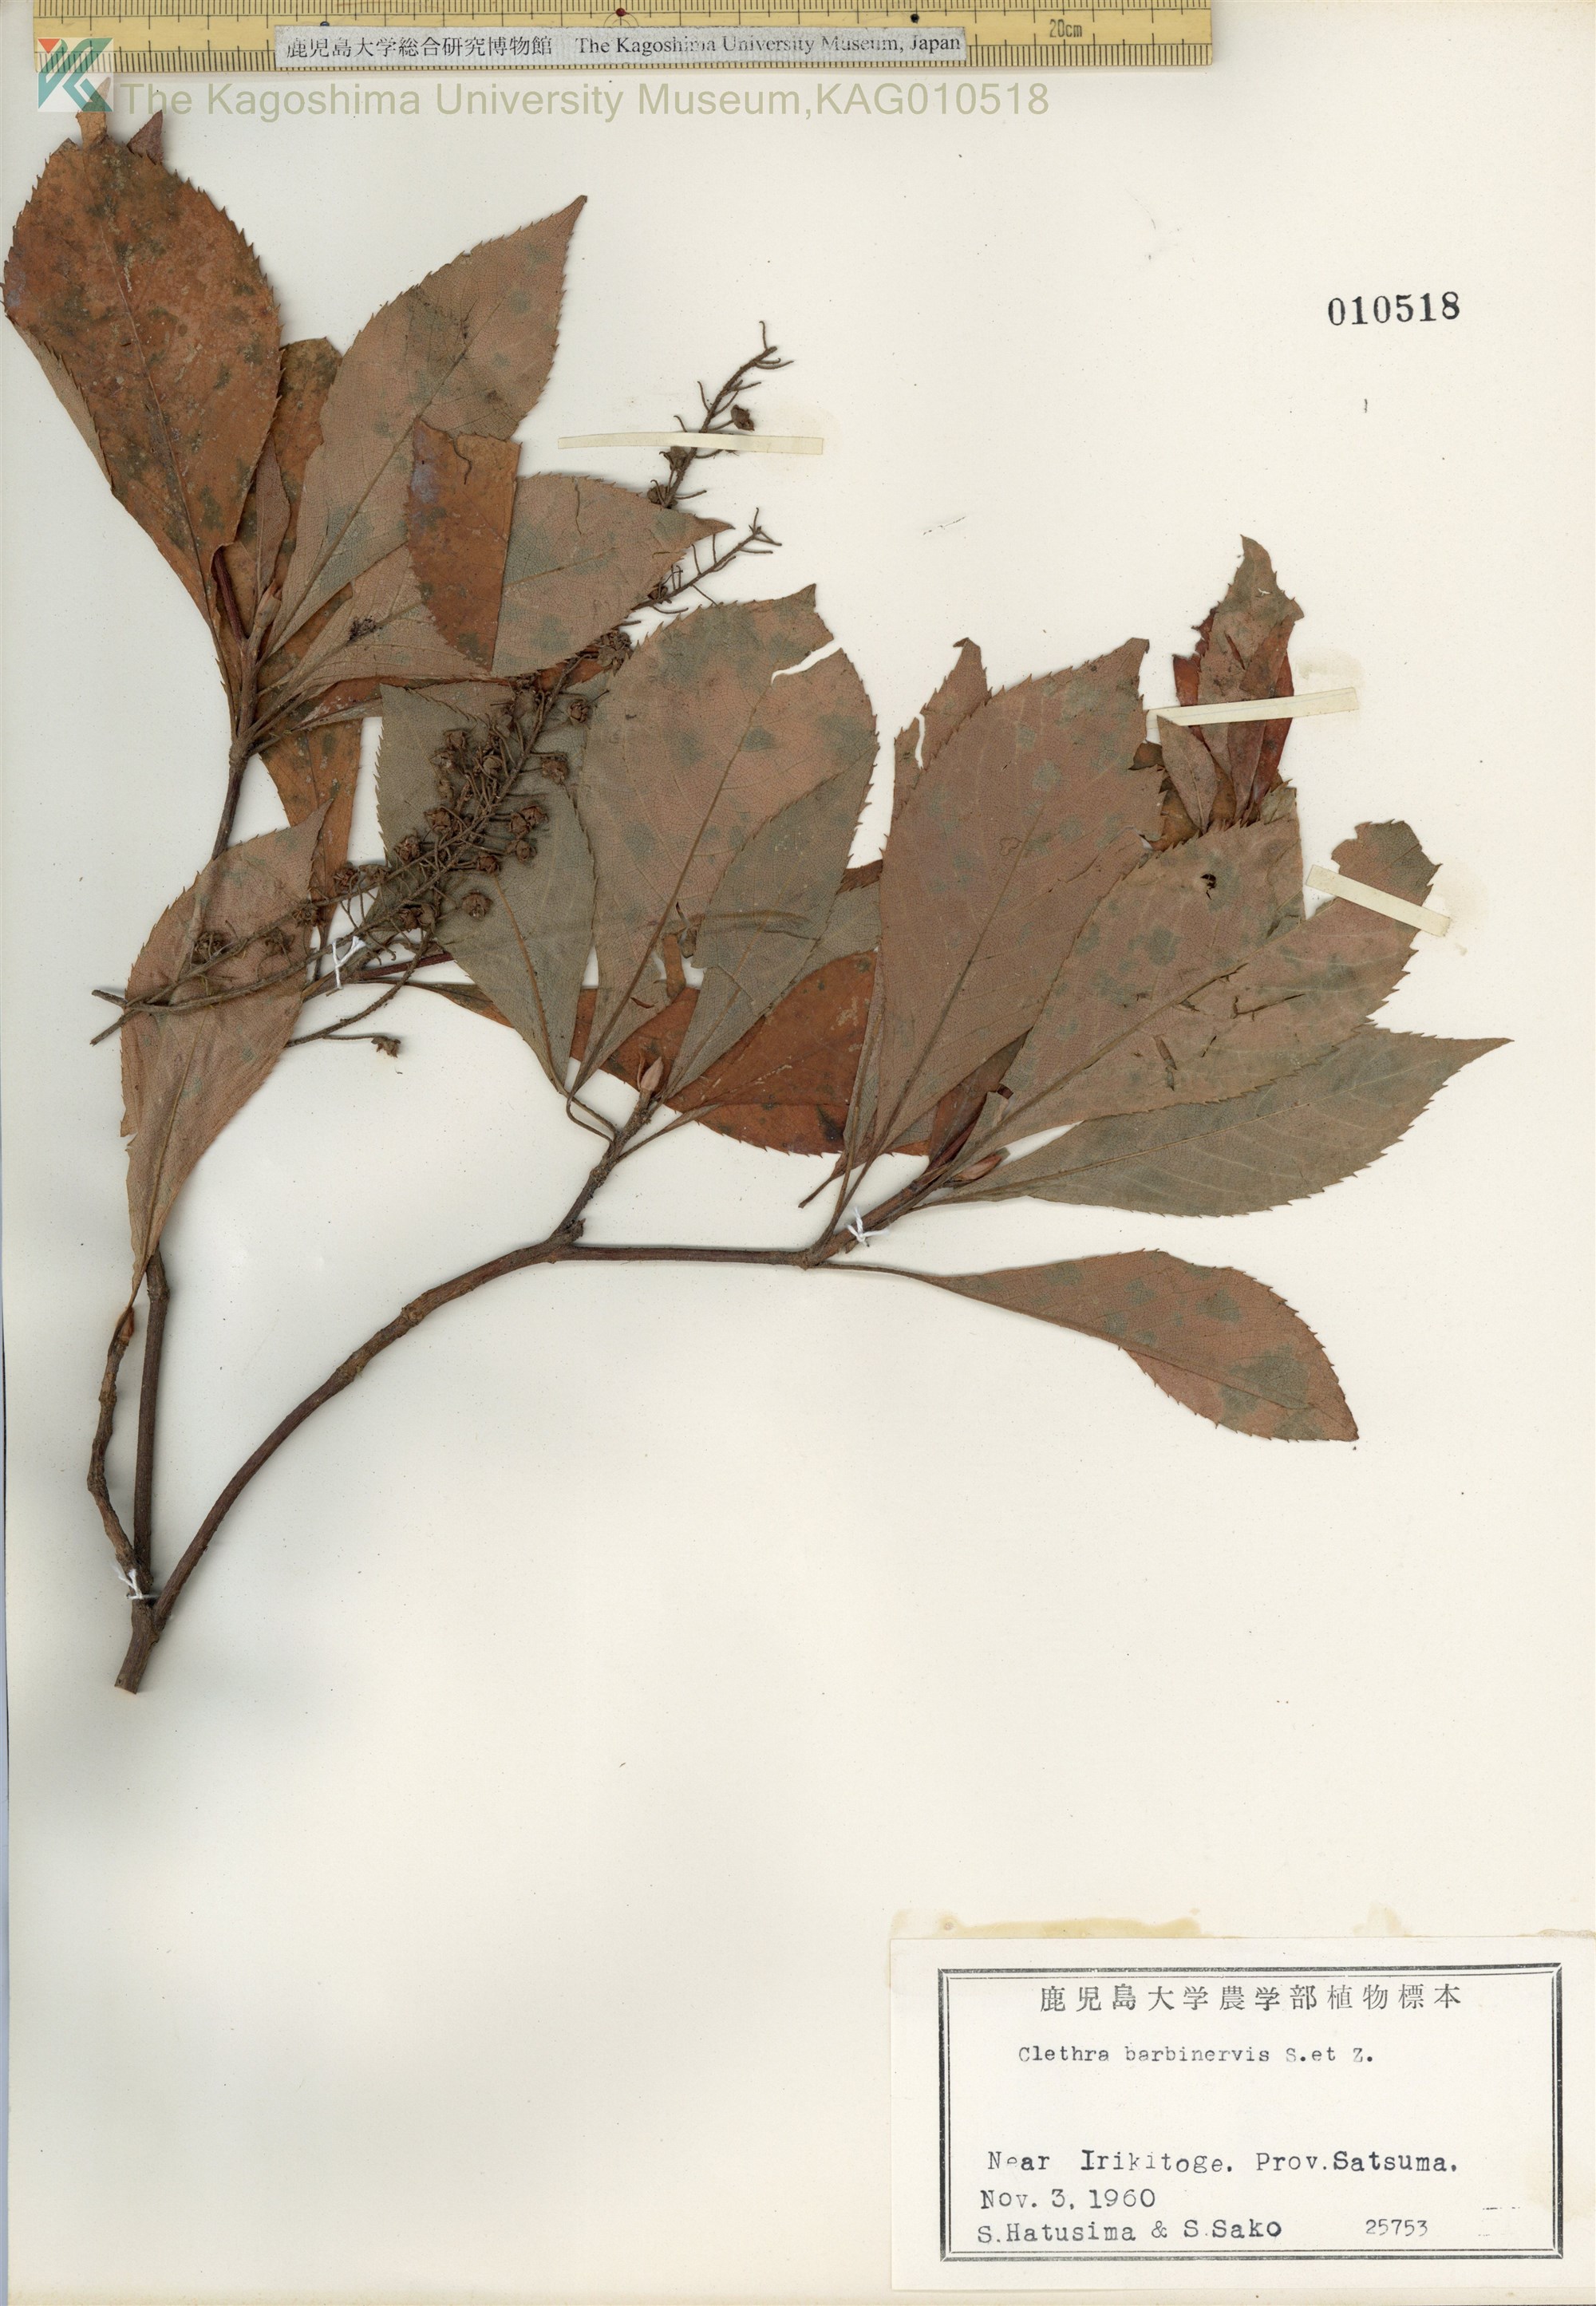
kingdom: Plantae
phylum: Tracheophyta
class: Magnoliopsida
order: Ericales
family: Clethraceae
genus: Clethra
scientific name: Clethra barbinervis
